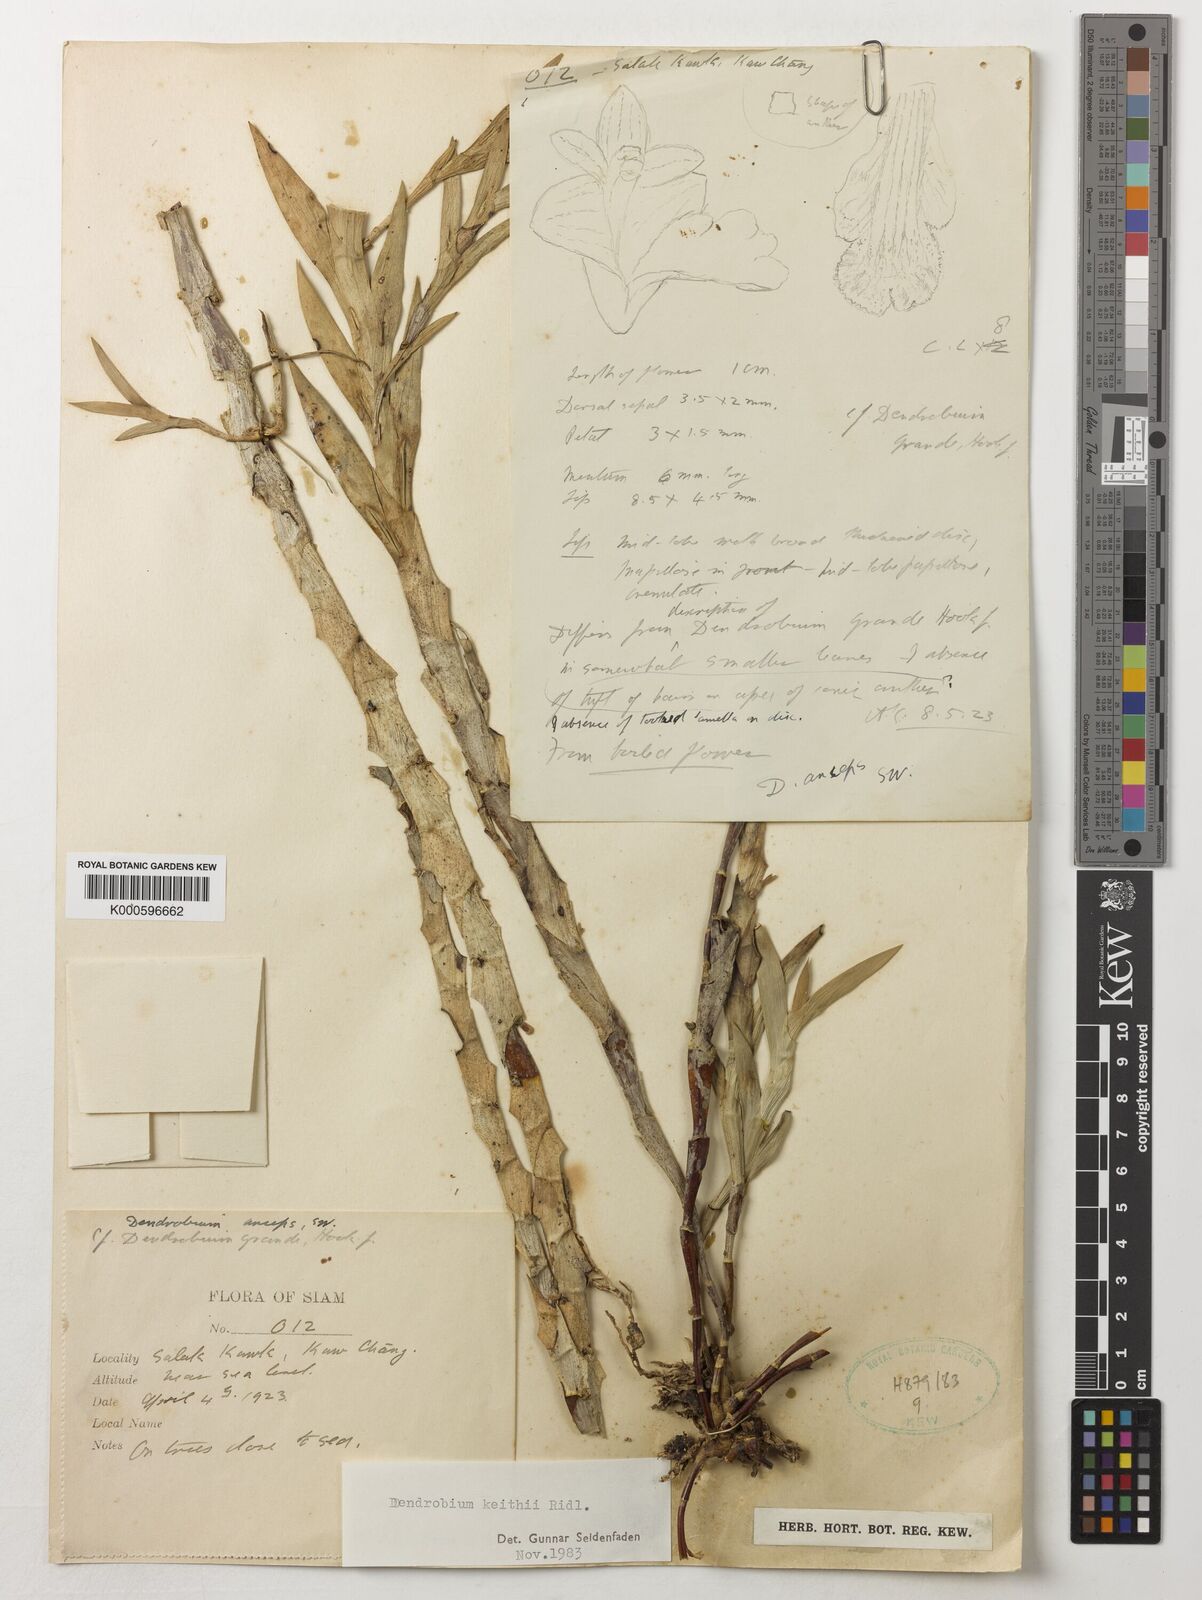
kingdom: Plantae
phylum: Tracheophyta
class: Liliopsida
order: Asparagales
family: Orchidaceae
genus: Dendrobium
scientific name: Dendrobium keithii
